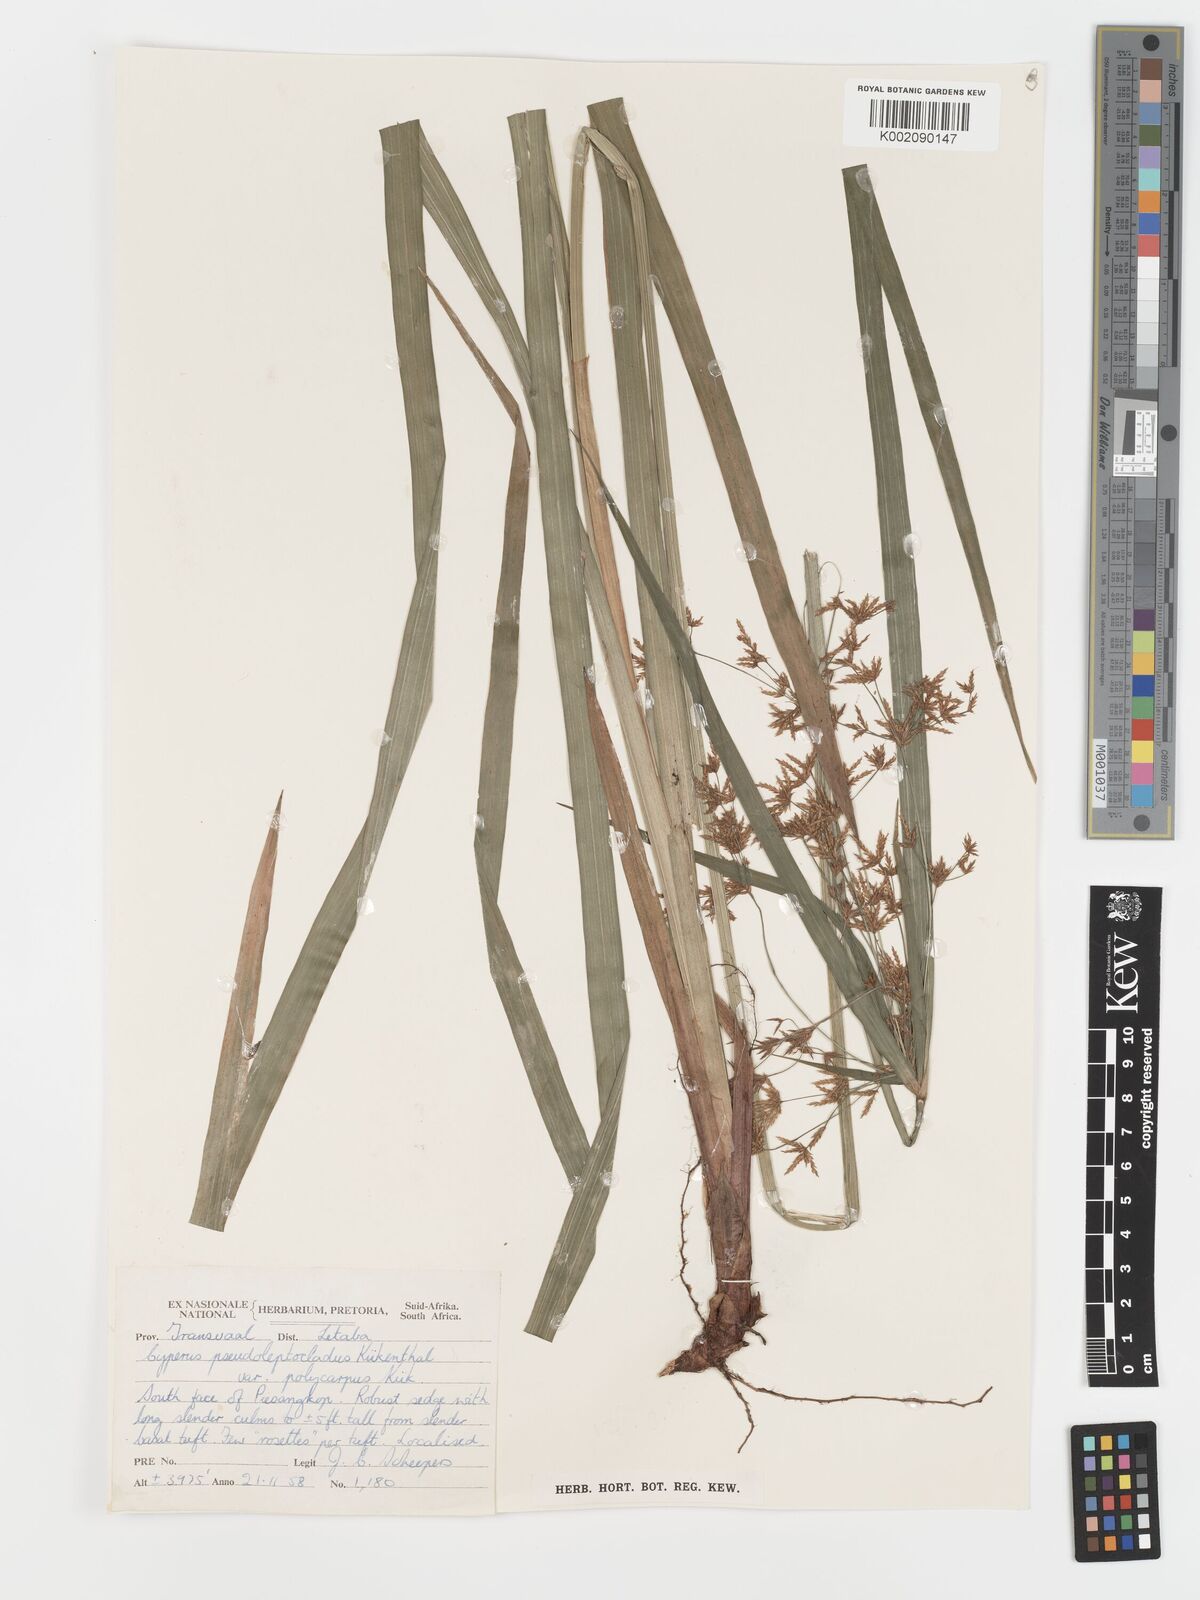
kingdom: Plantae
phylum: Tracheophyta
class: Liliopsida
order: Poales
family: Cyperaceae
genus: Cyperus
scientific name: Cyperus glaucophyllus
